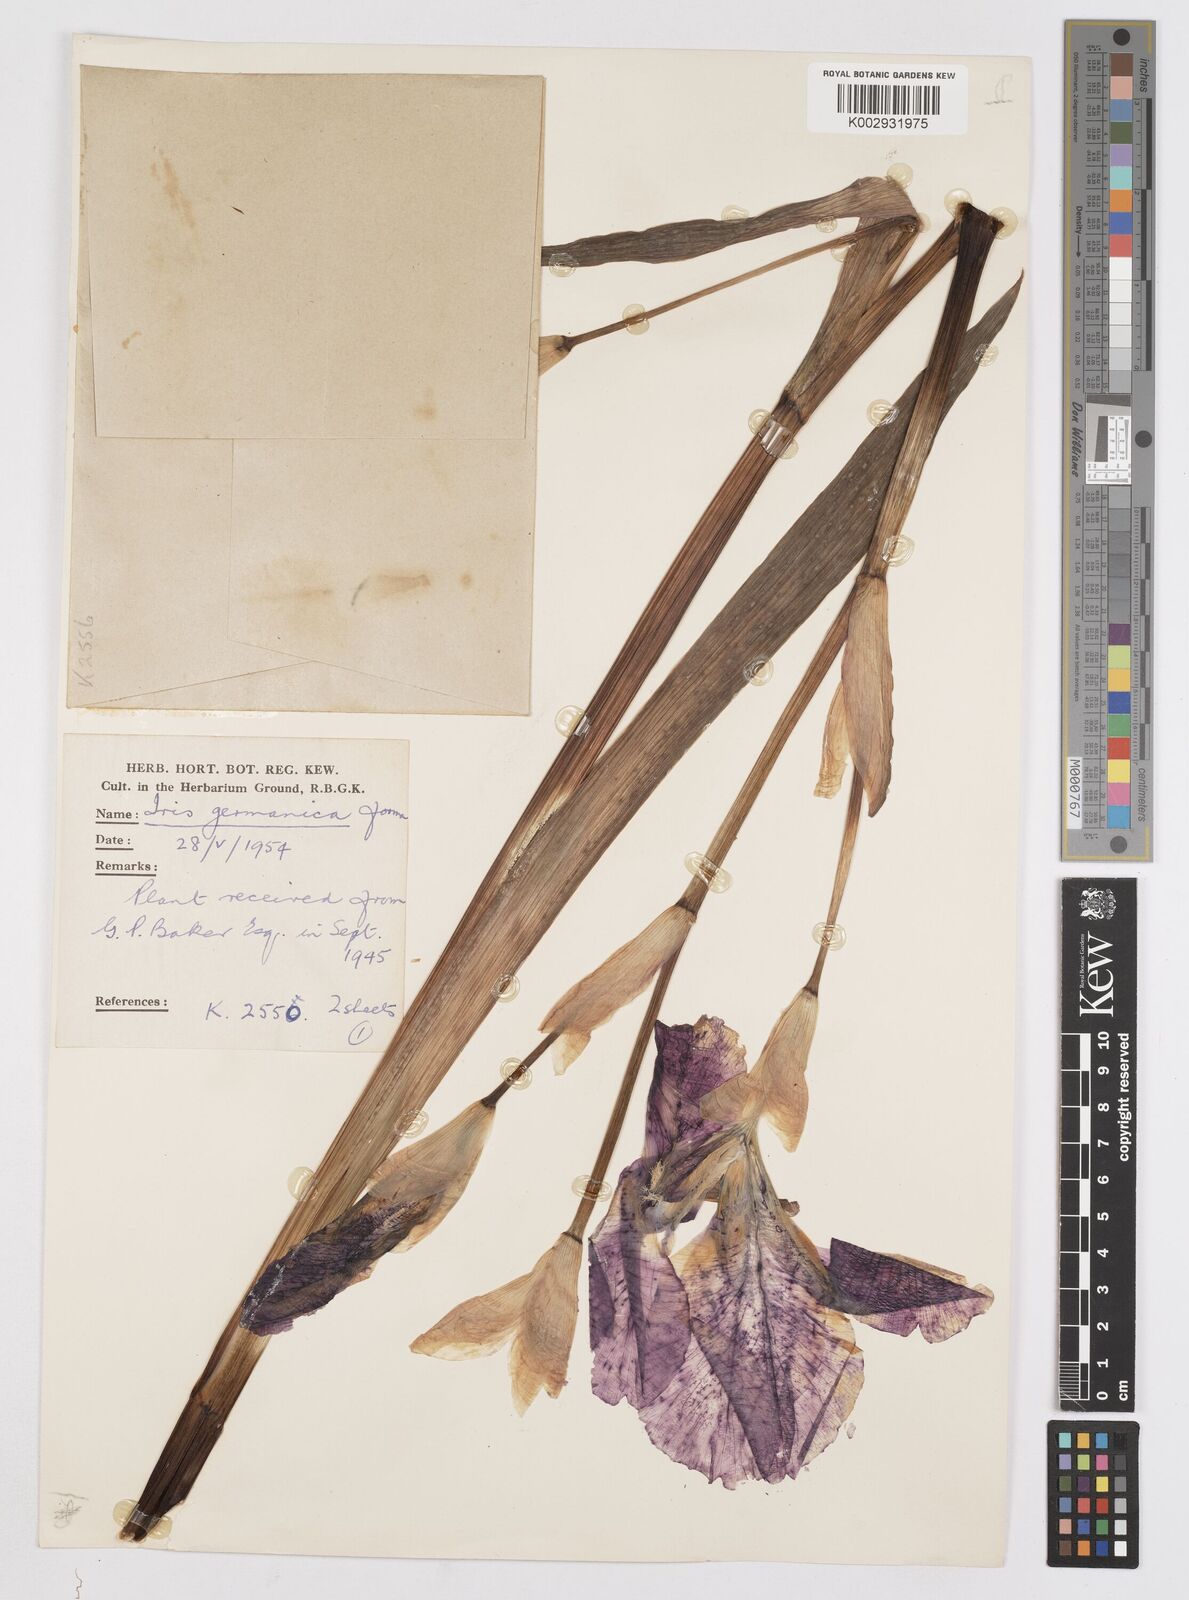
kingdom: Plantae
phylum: Tracheophyta
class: Liliopsida
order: Asparagales
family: Iridaceae
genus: Iris
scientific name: Iris
